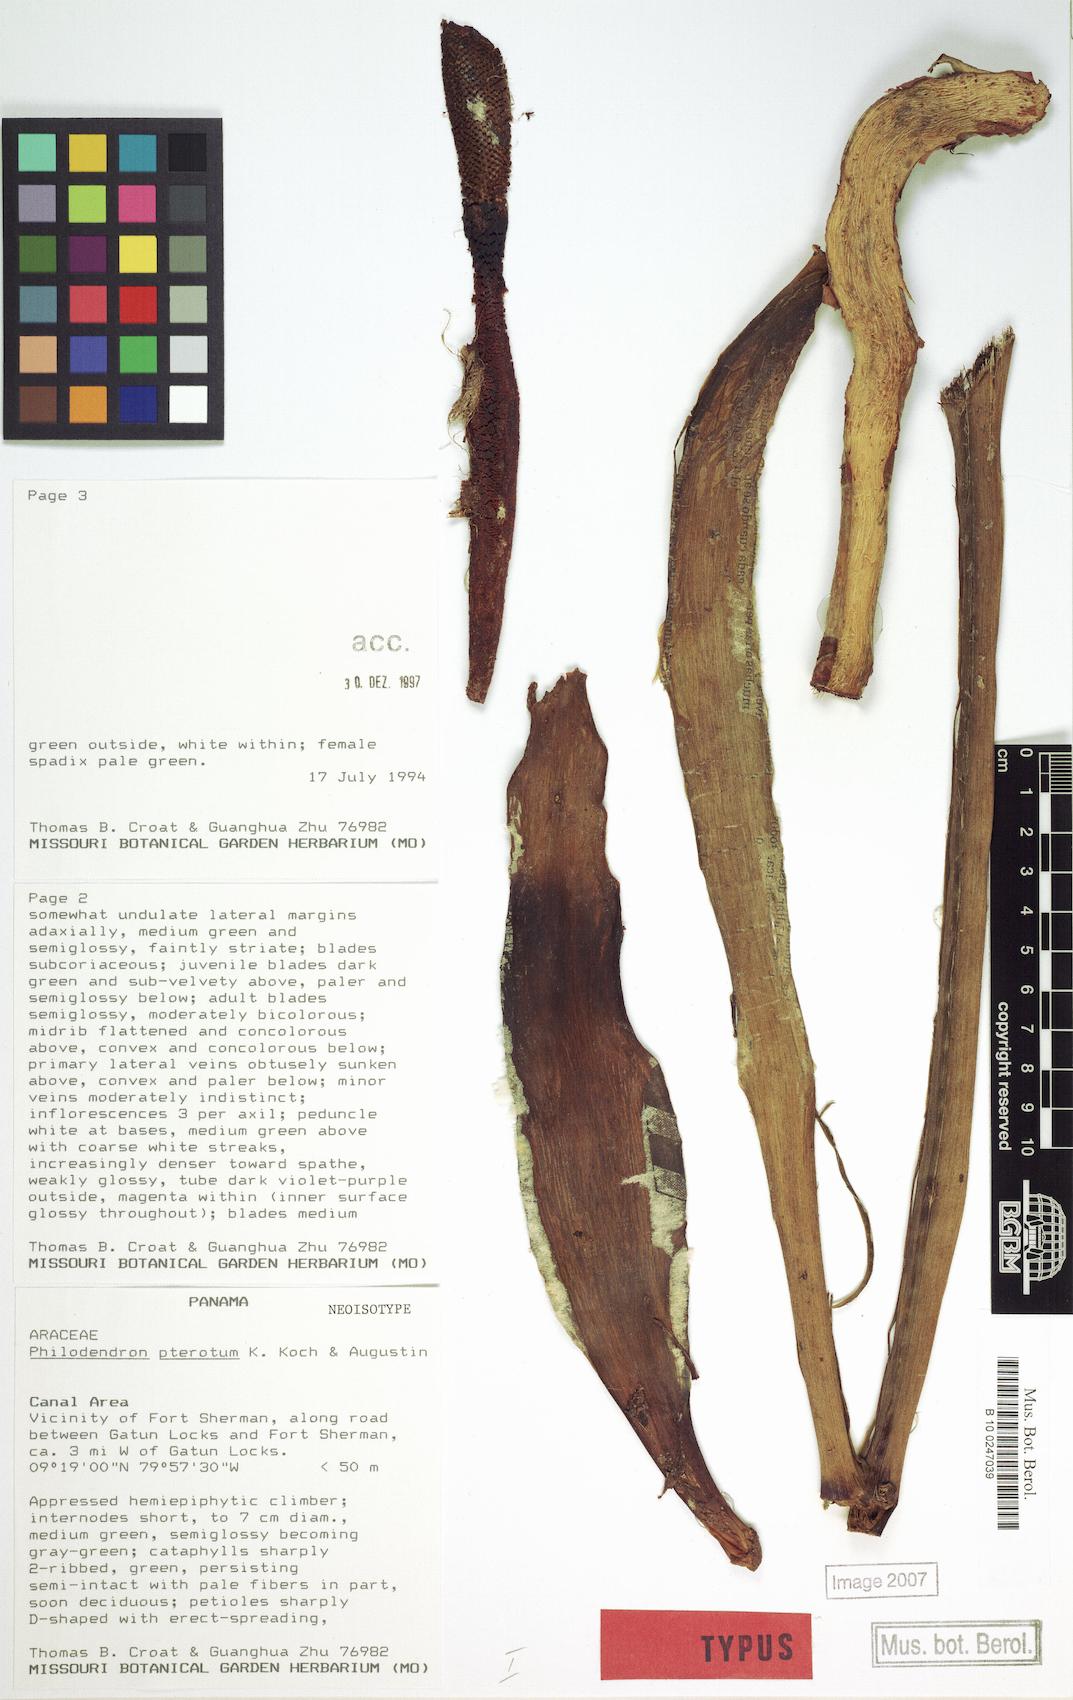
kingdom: Plantae
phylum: Tracheophyta
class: Liliopsida
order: Alismatales
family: Araceae
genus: Philodendron
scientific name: Philodendron pterotum
